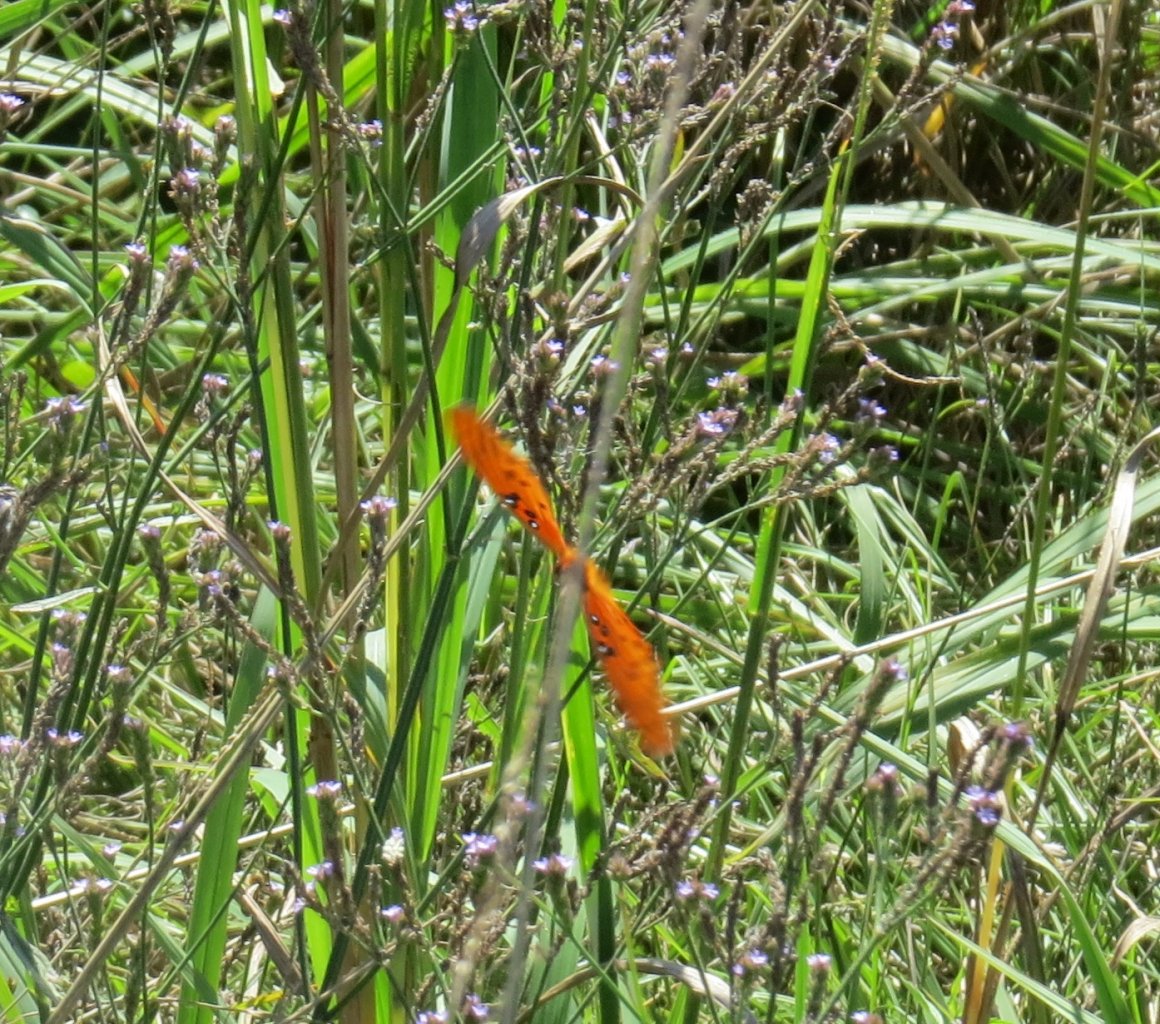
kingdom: Animalia
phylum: Arthropoda
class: Insecta
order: Lepidoptera
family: Nymphalidae
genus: Dione
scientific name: Dione vanillae
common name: Gulf Fritillary
